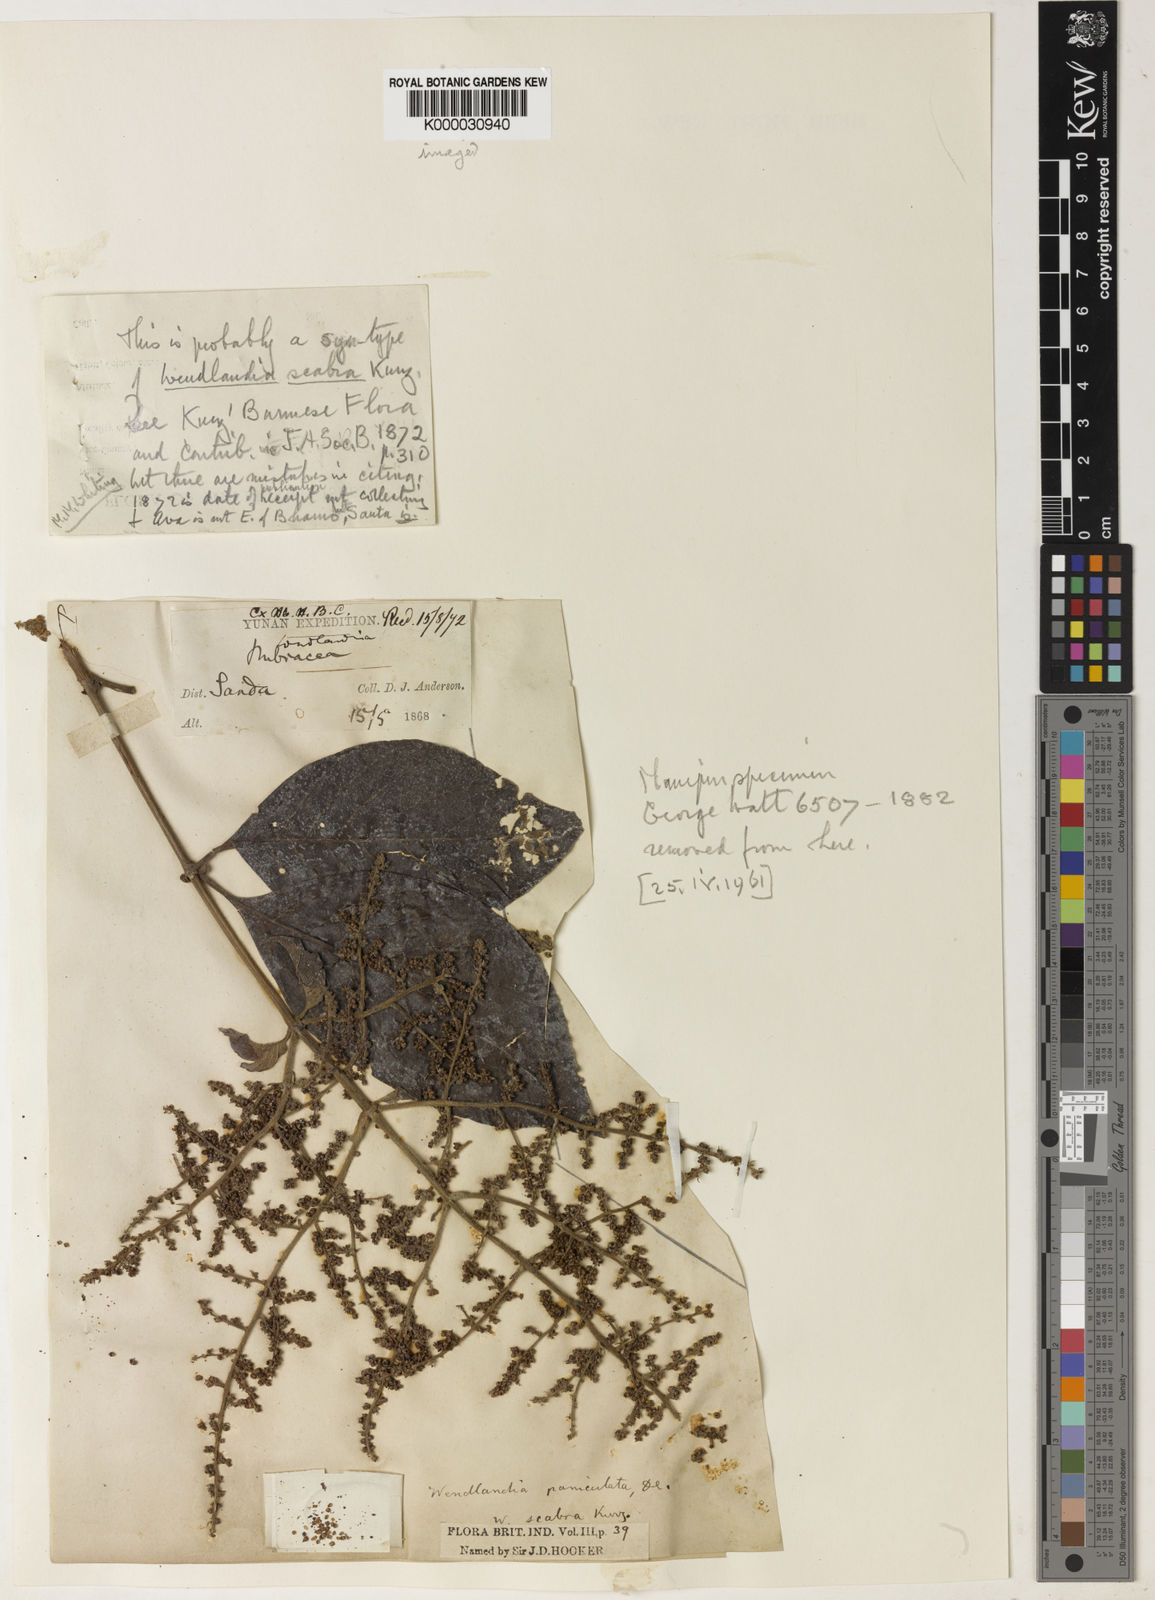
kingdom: Plantae
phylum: Tracheophyta
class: Magnoliopsida
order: Gentianales
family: Rubiaceae
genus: Wendlandia
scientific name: Wendlandia paniculata
